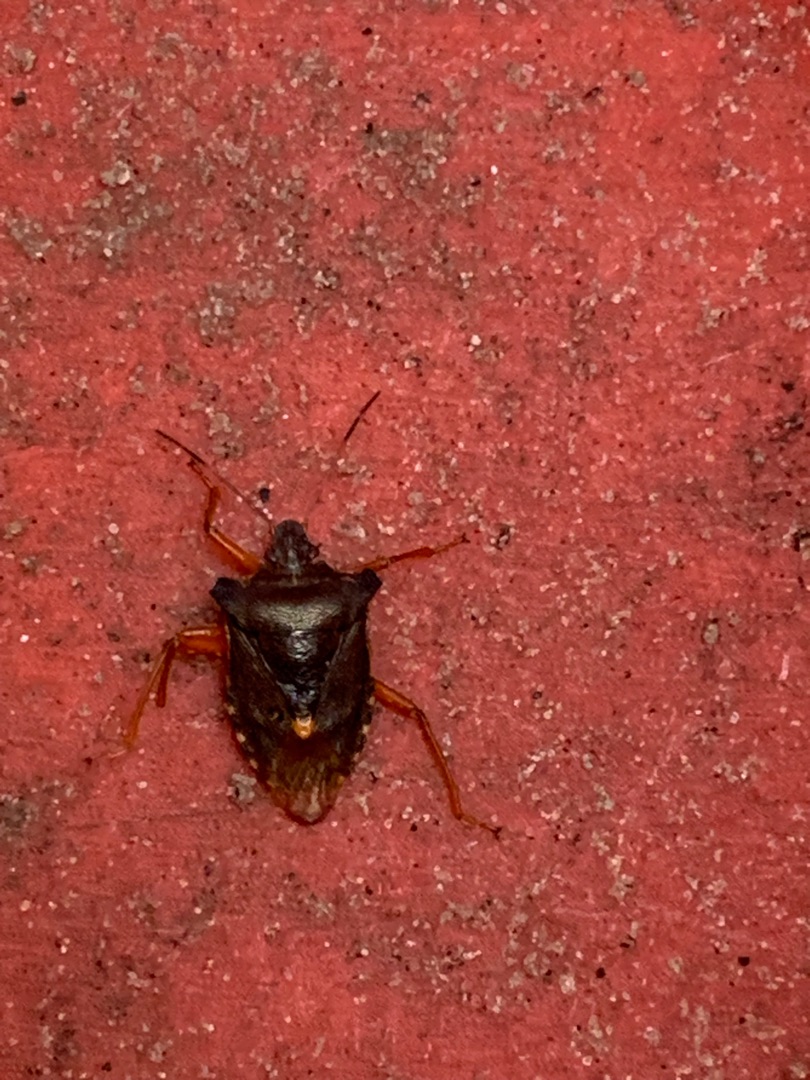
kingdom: Animalia
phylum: Arthropoda
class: Insecta
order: Hemiptera
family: Pentatomidae
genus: Pentatoma
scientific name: Pentatoma rufipes
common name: Rødbenet bredtæge
